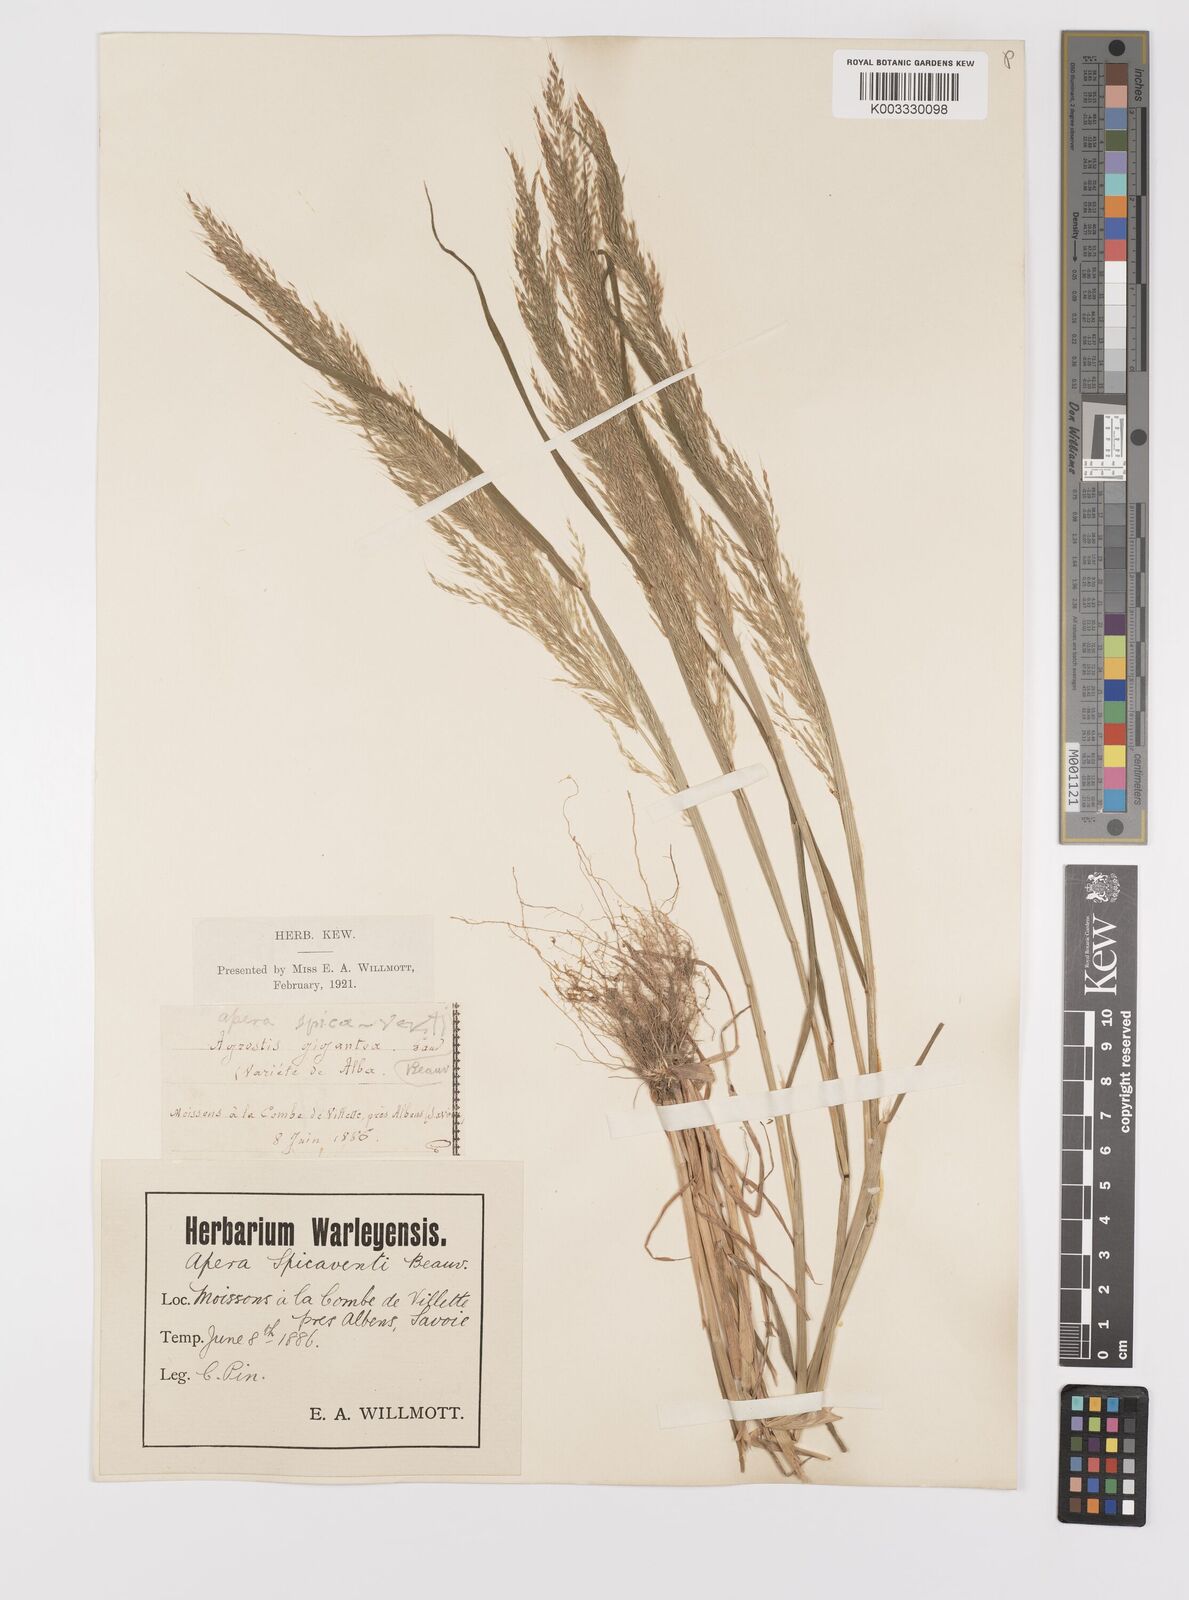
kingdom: Plantae
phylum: Tracheophyta
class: Liliopsida
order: Poales
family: Poaceae
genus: Apera
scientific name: Apera spica-venti
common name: Loose silky-bent
